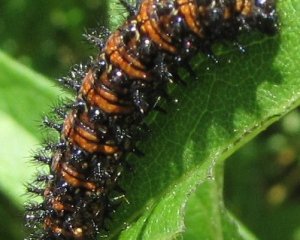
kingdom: Animalia
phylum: Arthropoda
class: Insecta
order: Lepidoptera
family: Nymphalidae
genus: Chlosyne
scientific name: Chlosyne harrisii
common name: Harris's Checkerspot
